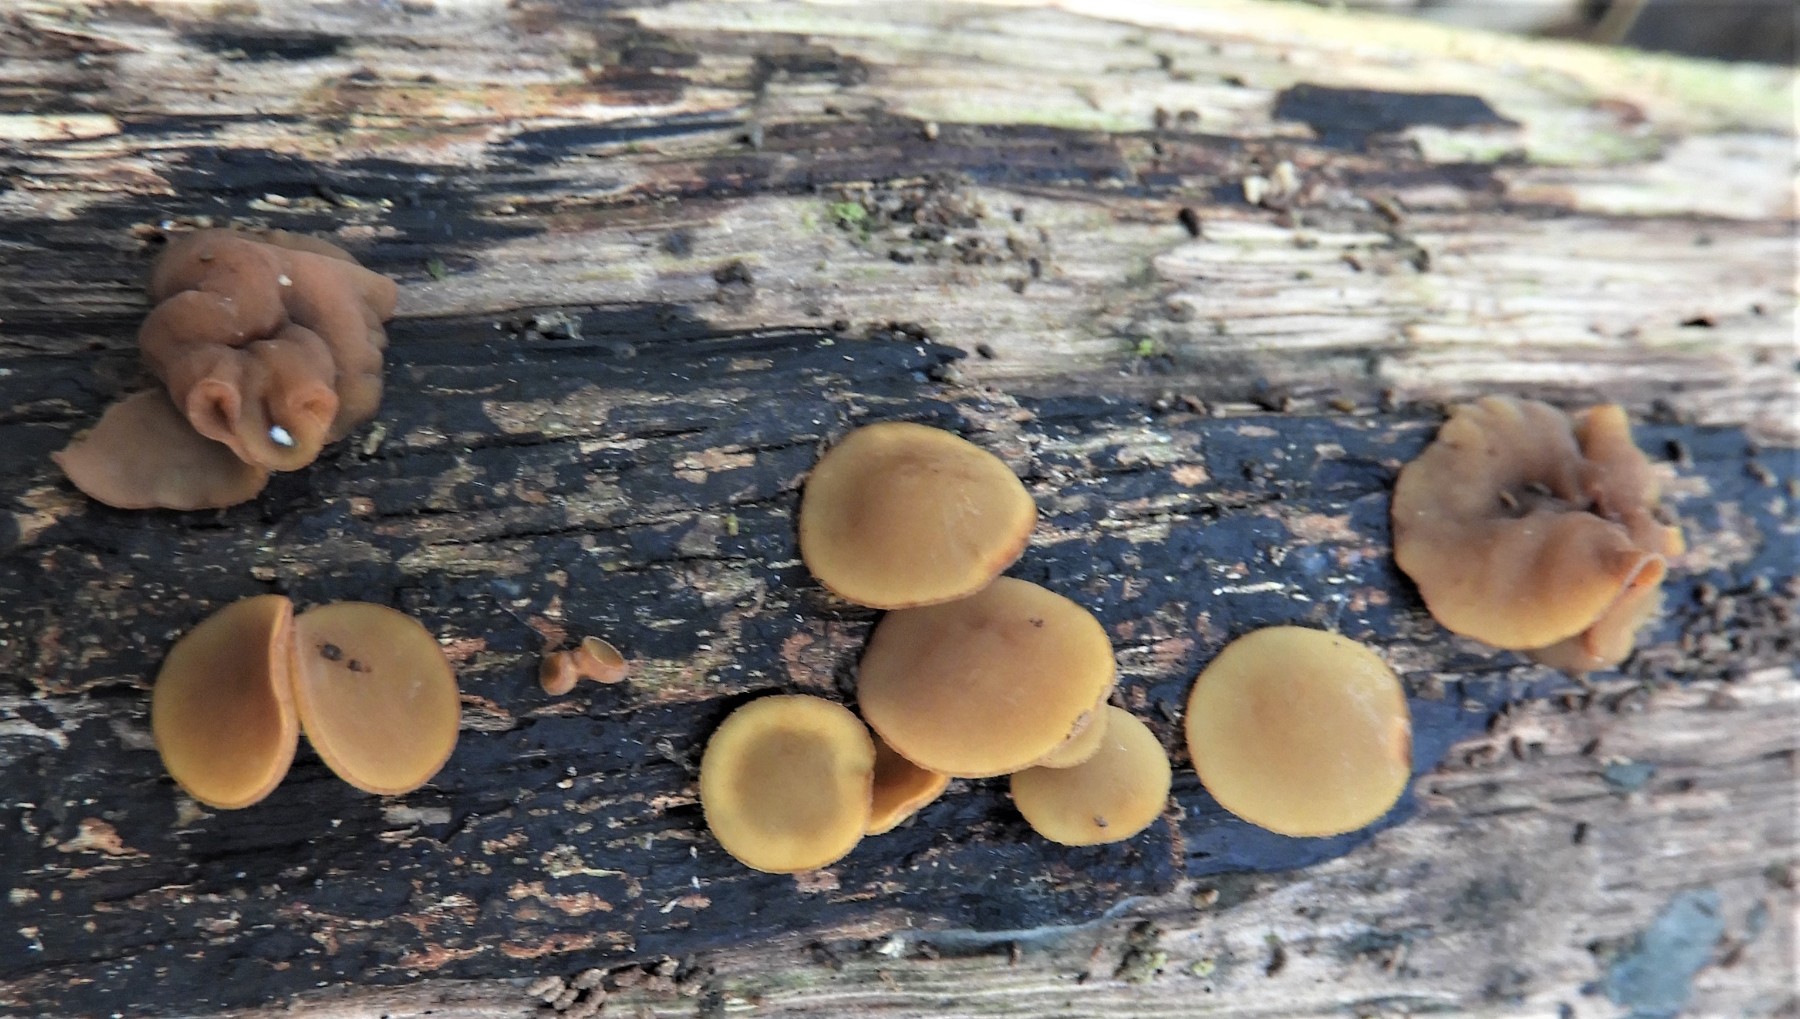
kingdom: Fungi
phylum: Ascomycota
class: Leotiomycetes
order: Helotiales
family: Rutstroemiaceae
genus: Rutstroemia
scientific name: Rutstroemia firma
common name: gren-brunskive
